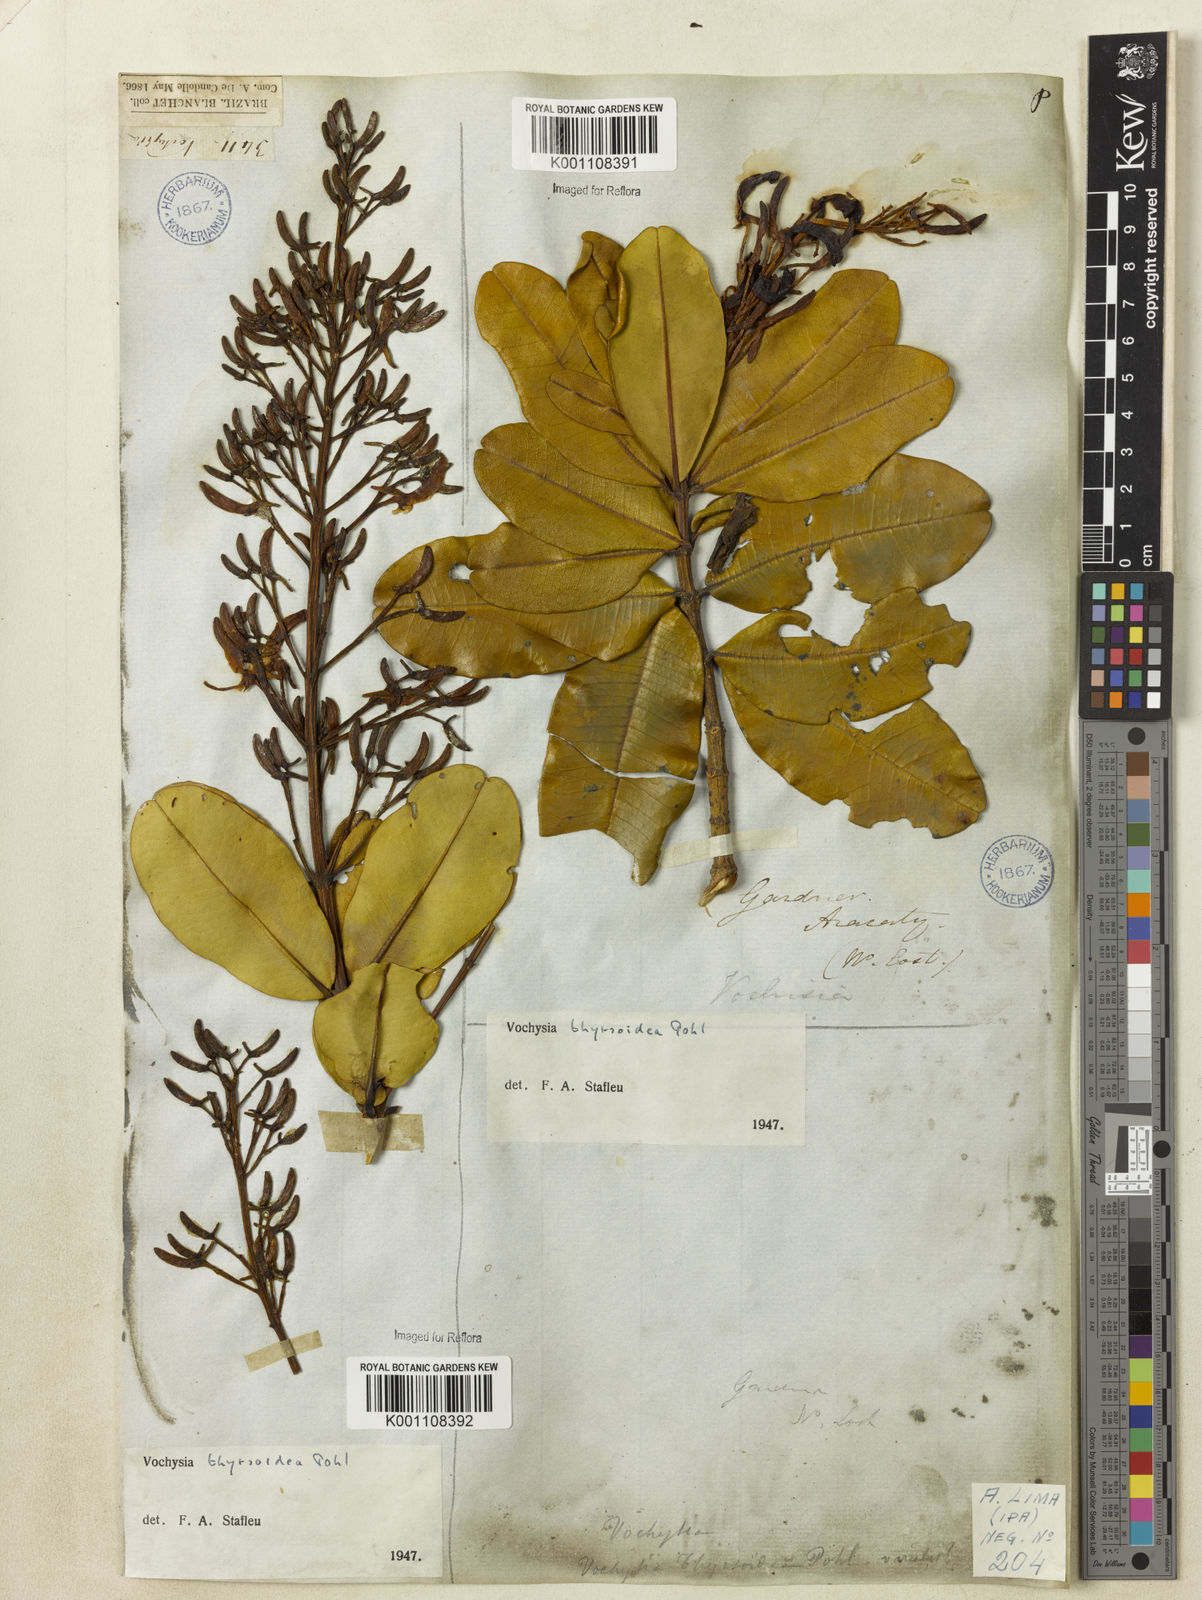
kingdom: Plantae
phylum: Tracheophyta
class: Magnoliopsida
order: Myrtales
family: Vochysiaceae
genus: Vochysia
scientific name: Vochysia thyrsoidea
